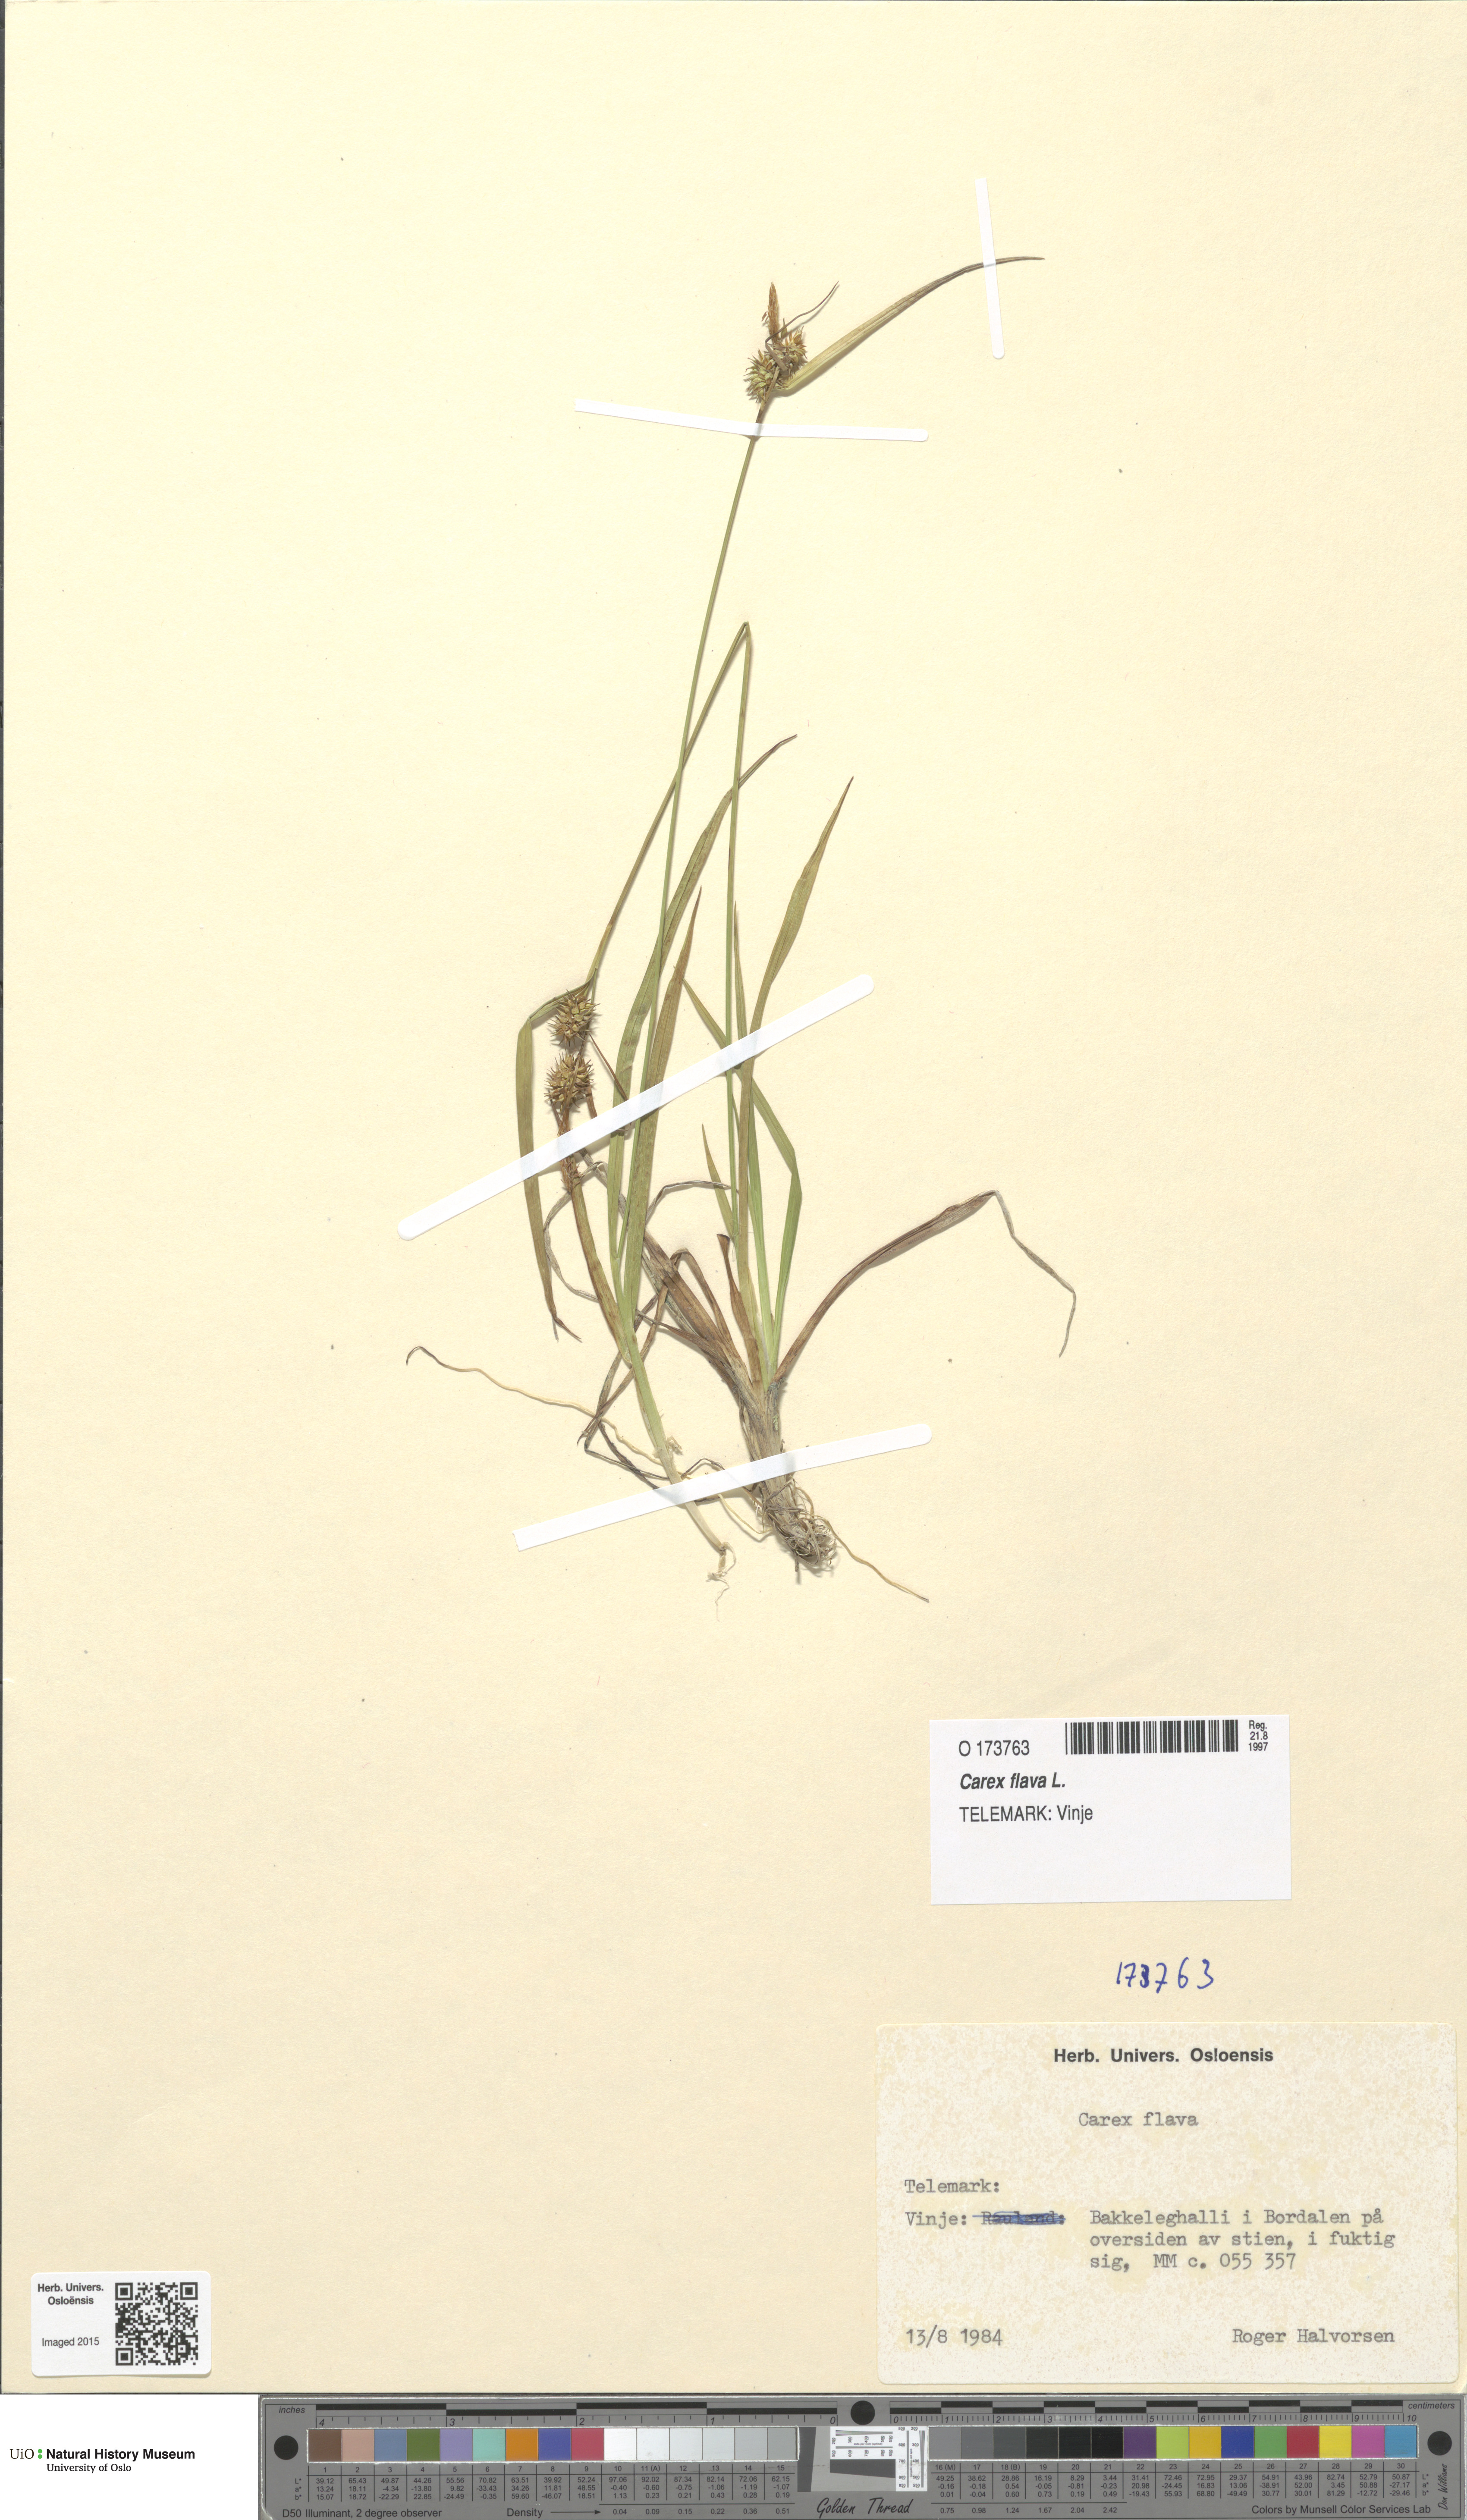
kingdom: Plantae
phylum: Tracheophyta
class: Liliopsida
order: Poales
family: Cyperaceae
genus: Carex
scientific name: Carex flava
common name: Large yellow-sedge
